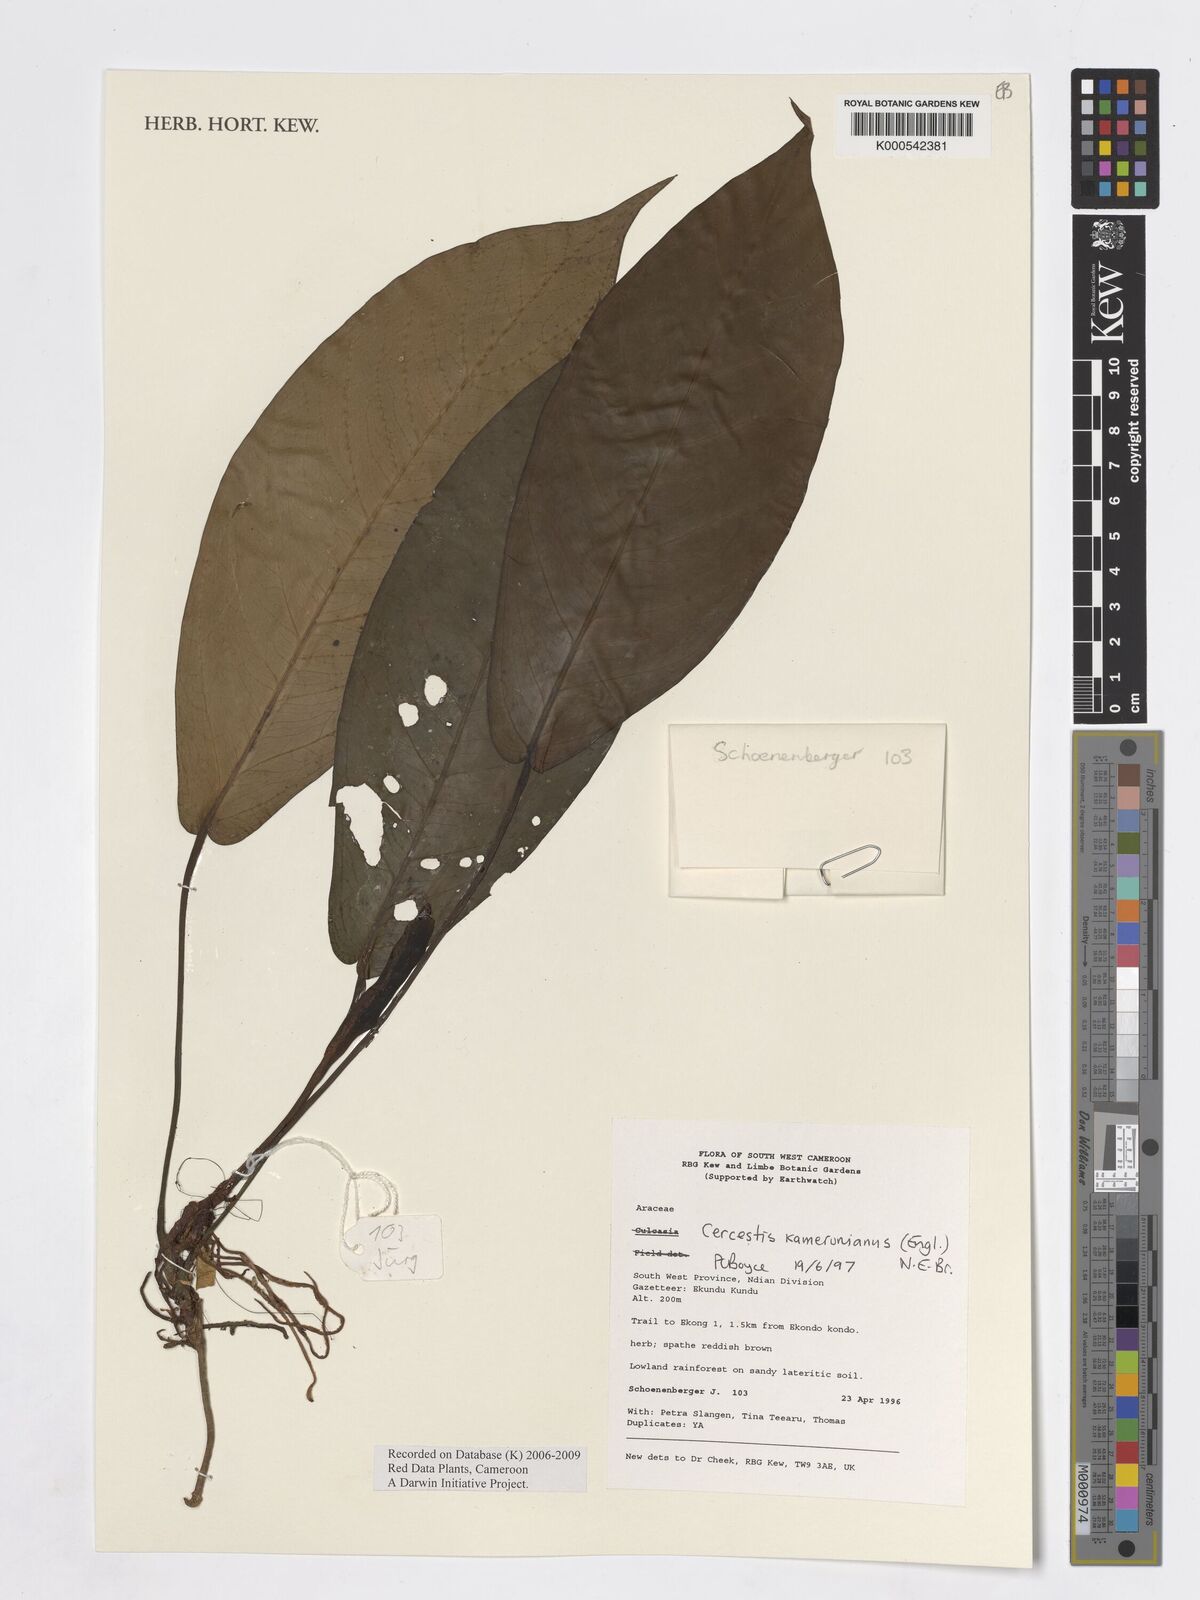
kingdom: Plantae
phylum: Tracheophyta
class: Liliopsida
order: Alismatales
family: Araceae
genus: Cercestis
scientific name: Cercestis kamerunianus
